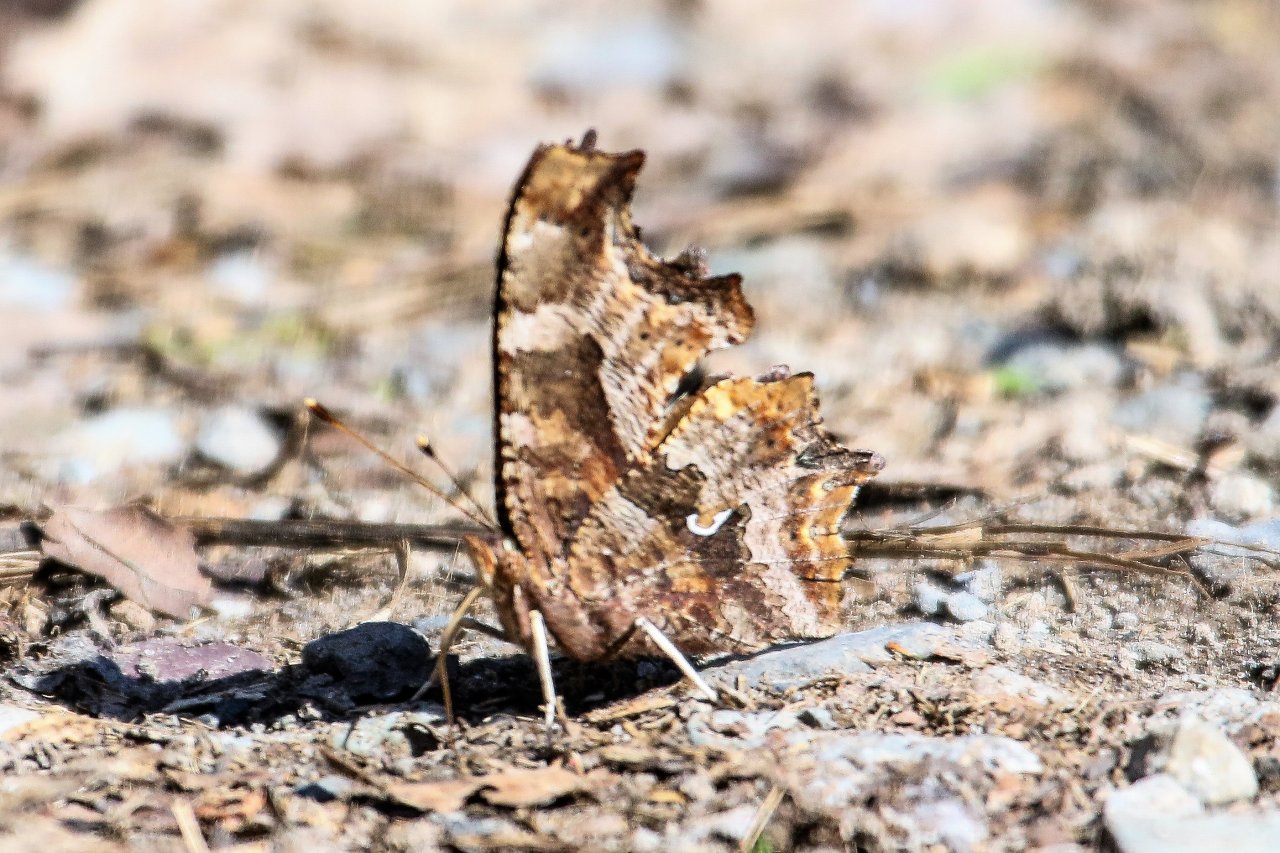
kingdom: Animalia
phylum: Arthropoda
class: Insecta
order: Lepidoptera
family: Nymphalidae
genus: Polygonia
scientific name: Polygonia comma
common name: Eastern Comma
